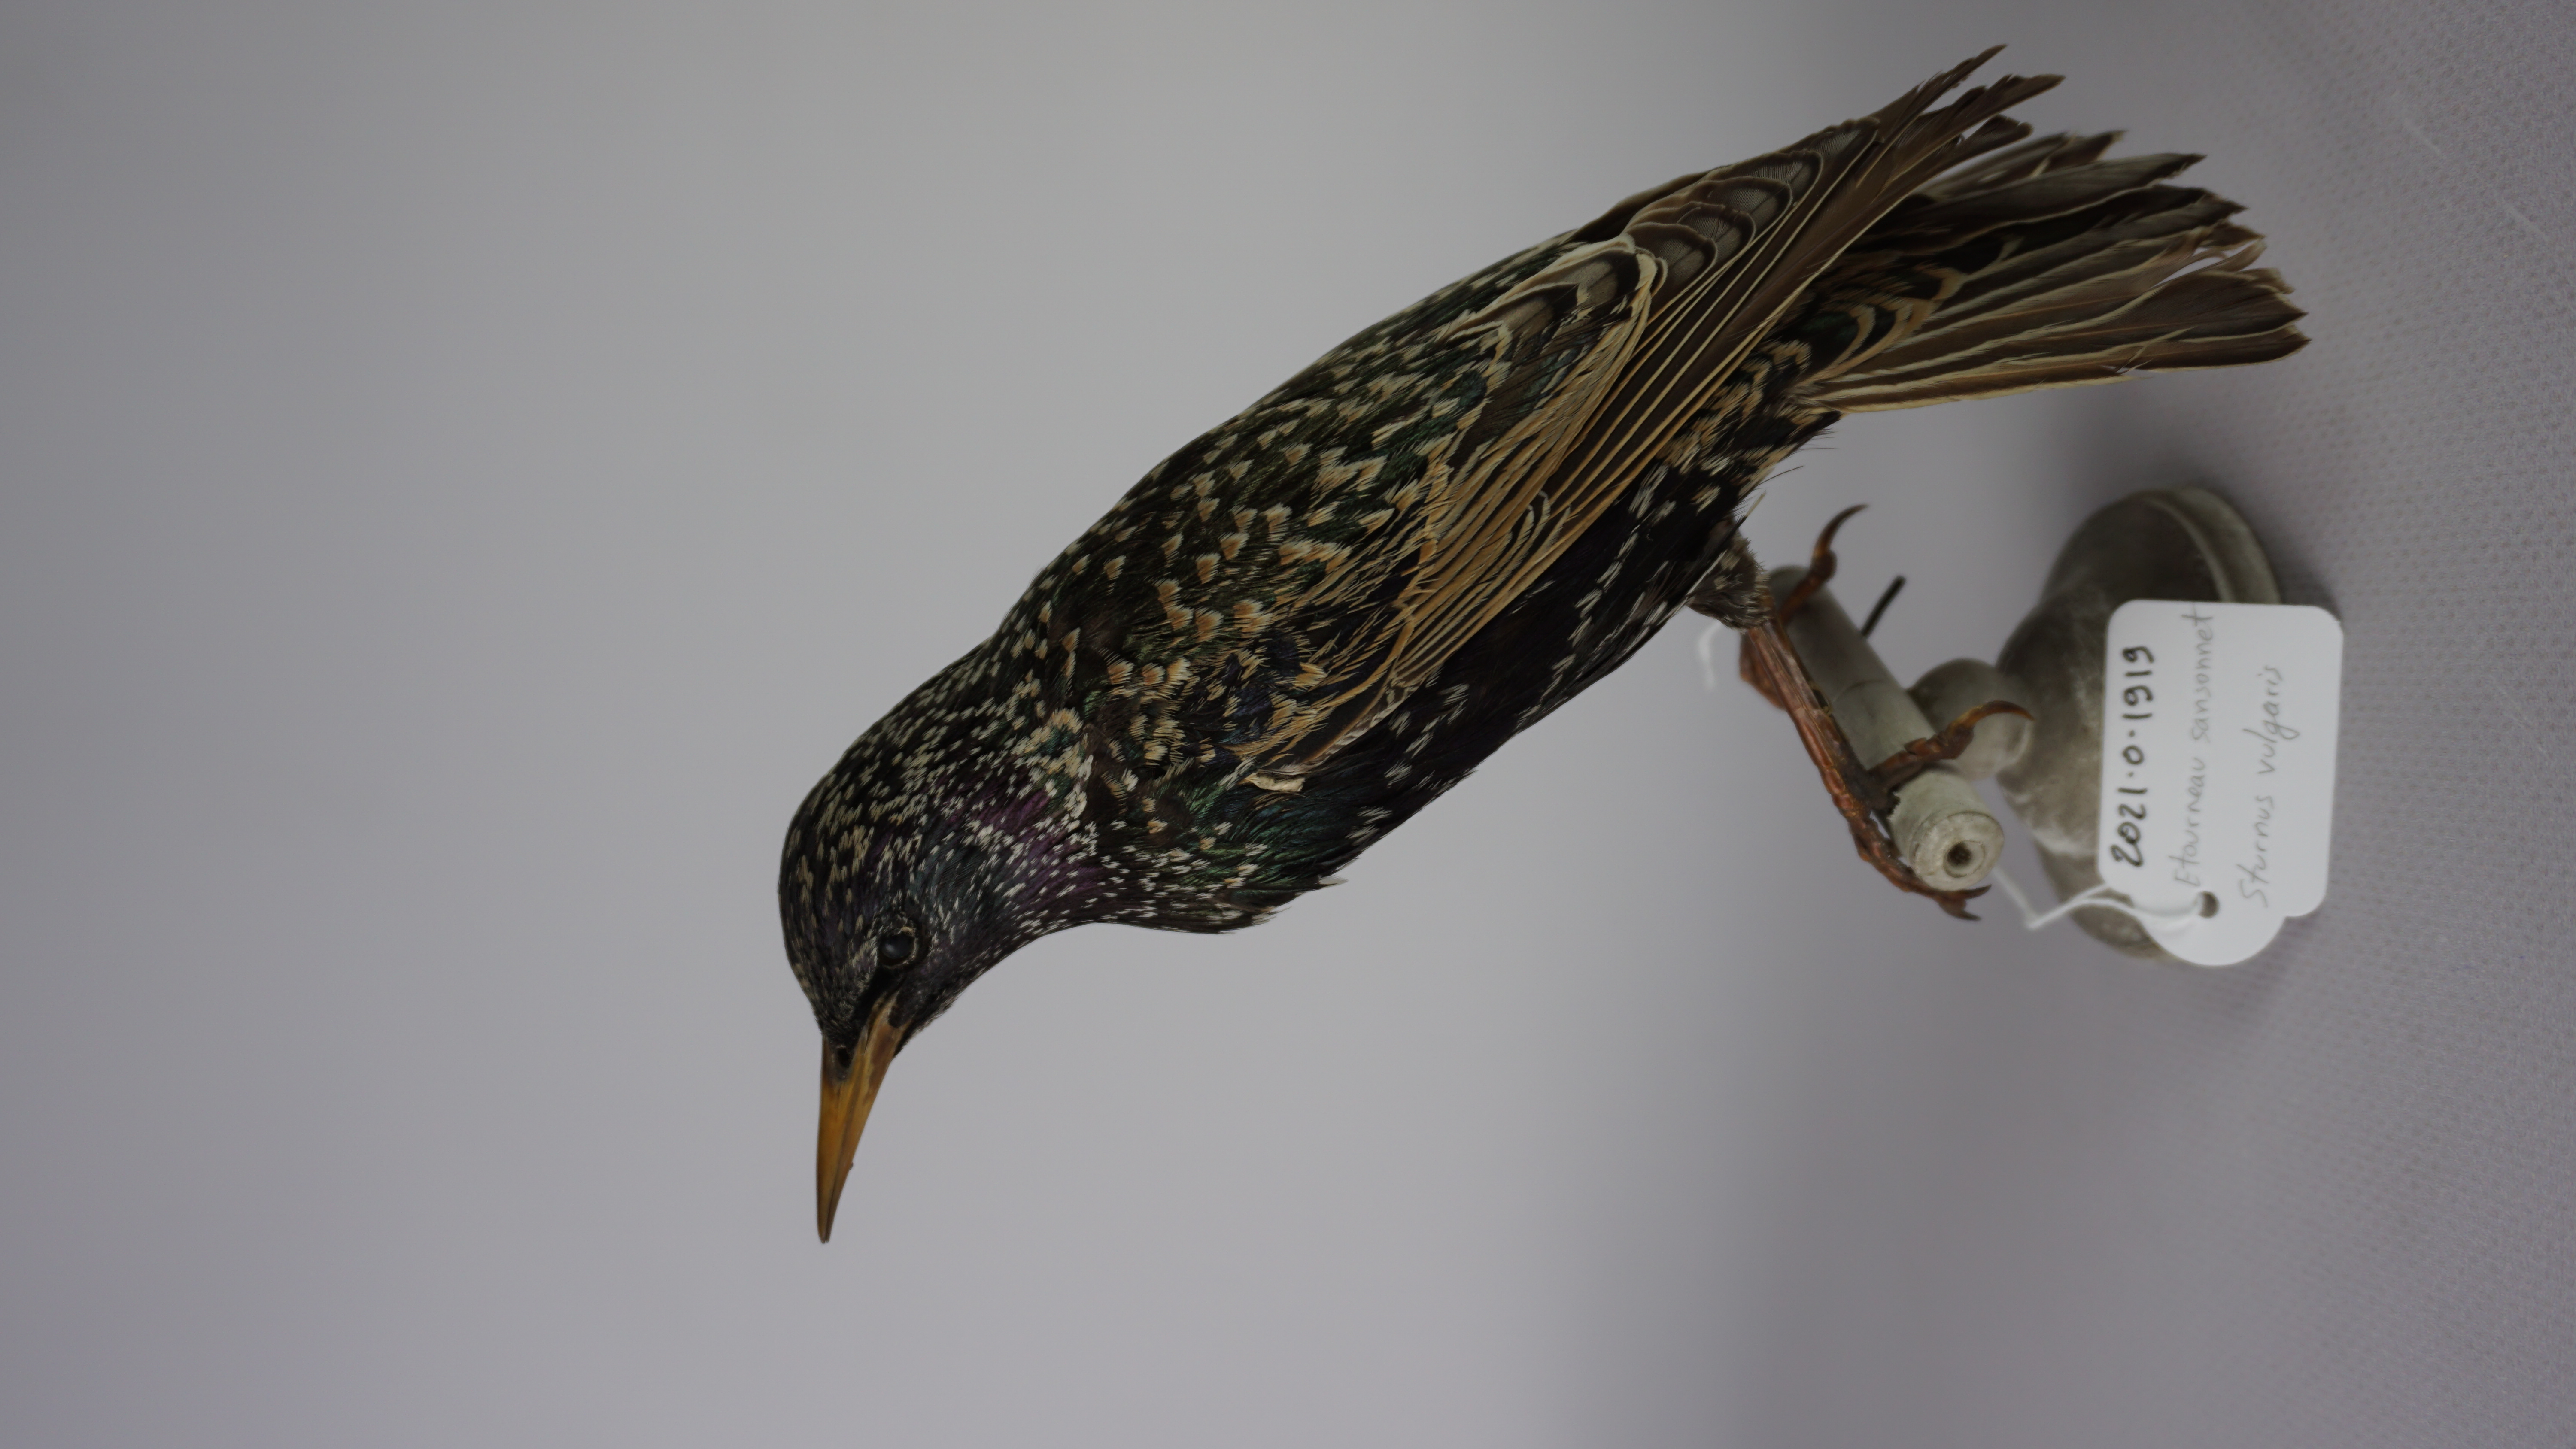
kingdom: Animalia
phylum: Chordata
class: Aves
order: Passeriformes
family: Sturnidae
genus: Sturnus
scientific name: Sturnus vulgaris
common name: Common starling
